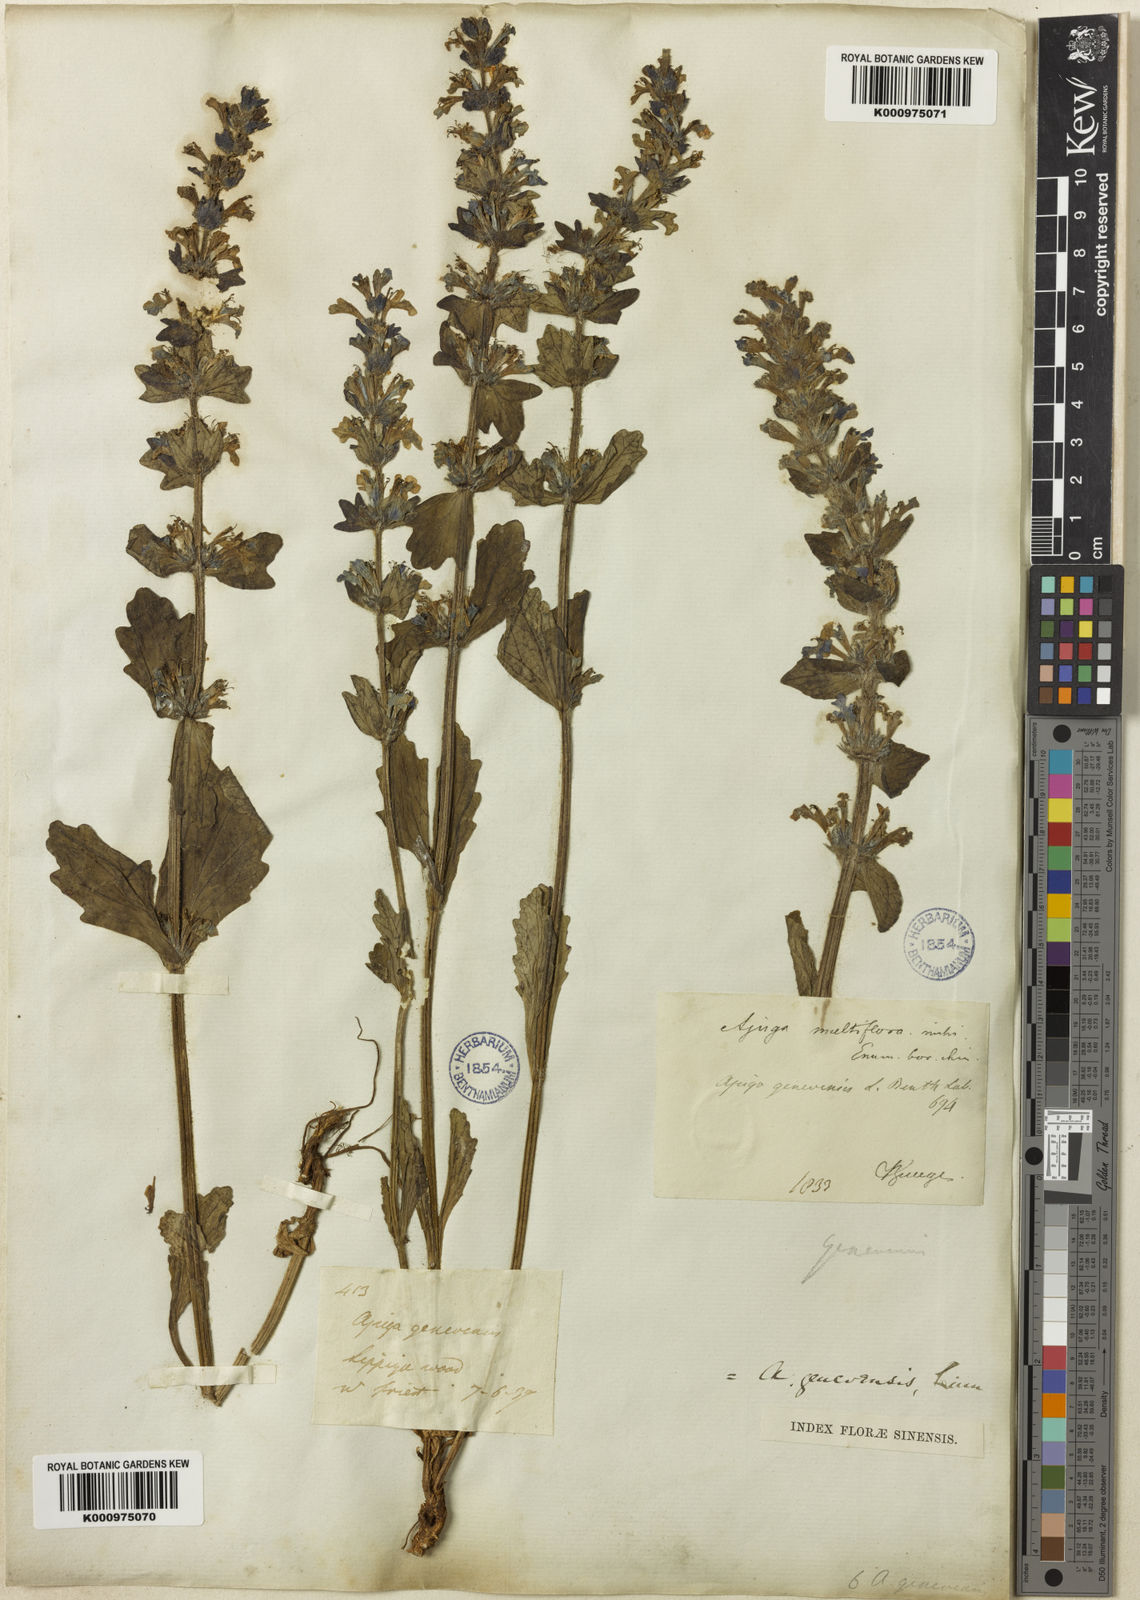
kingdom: Plantae
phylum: Tracheophyta
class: Magnoliopsida
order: Lamiales
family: Lamiaceae
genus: Ajuga
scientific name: Ajuga multiflora
